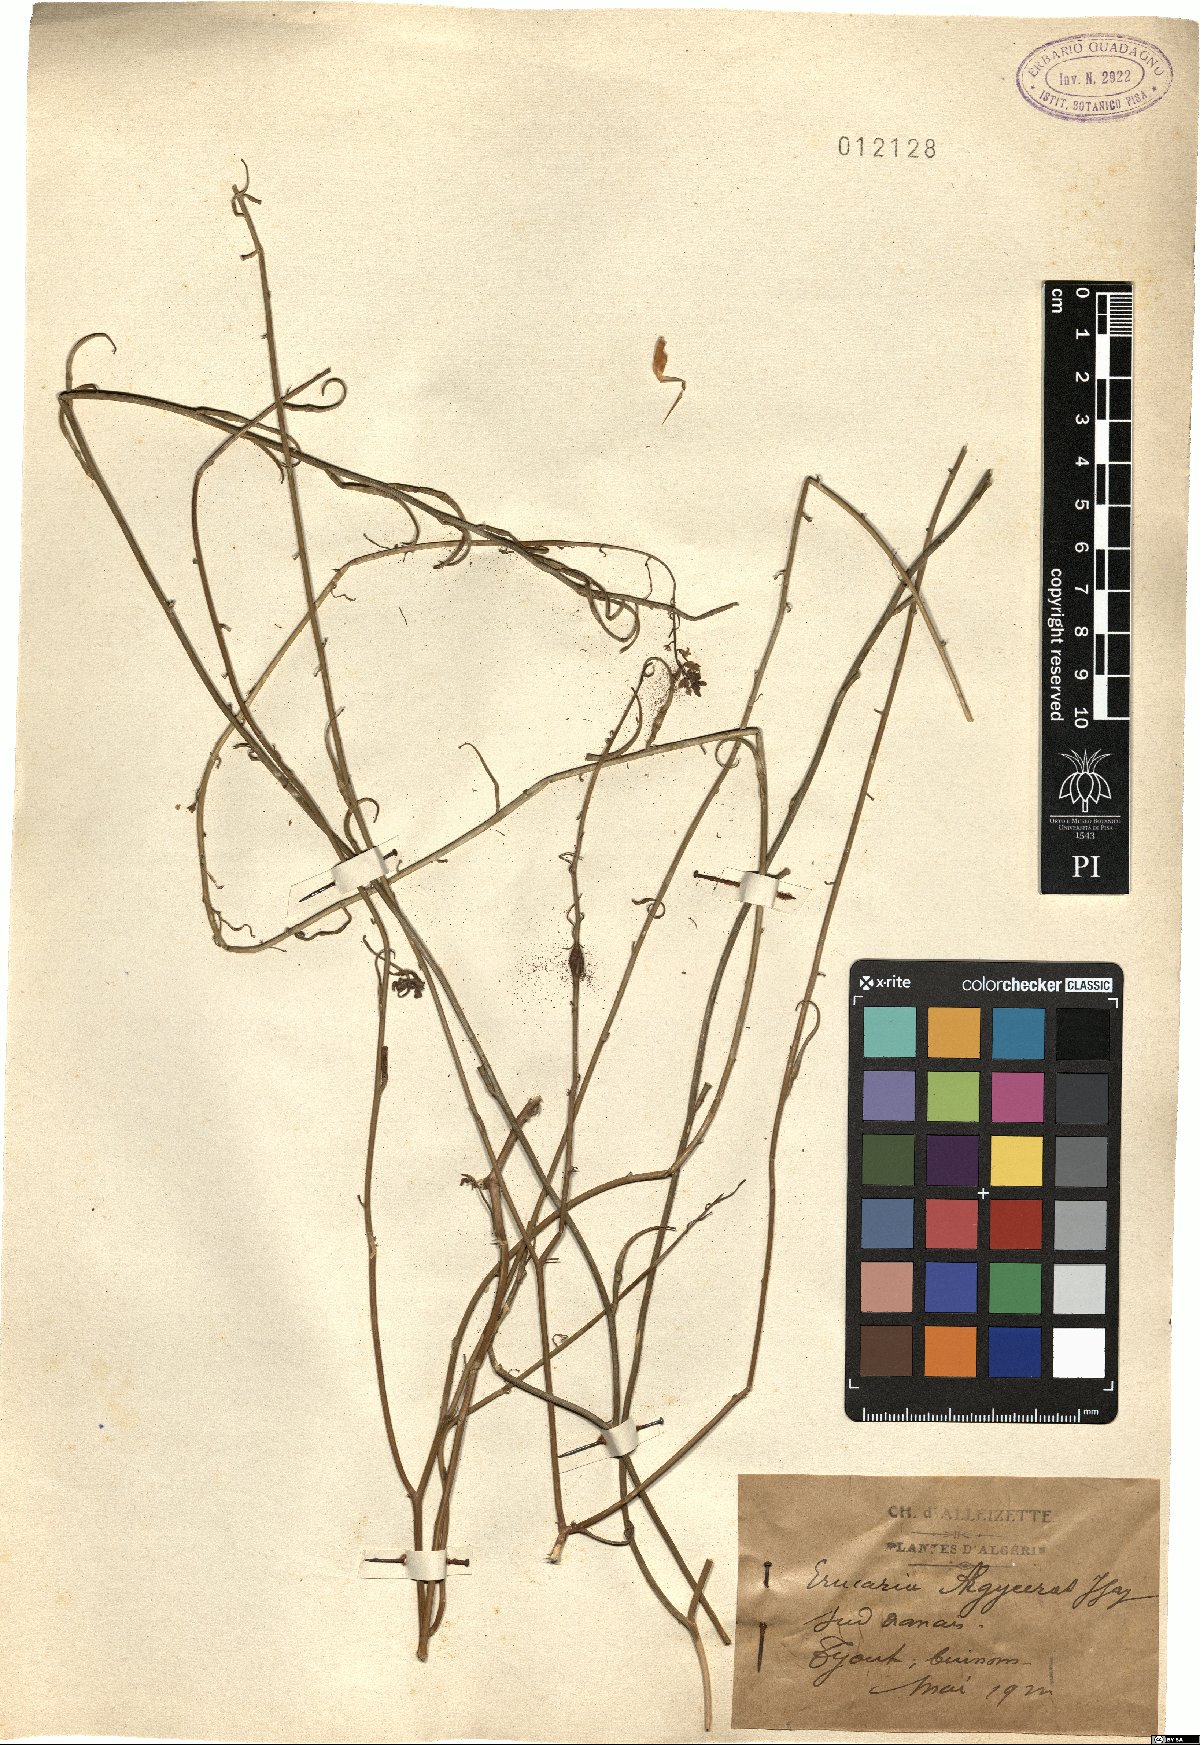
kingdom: Plantae
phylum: Tracheophyta
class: Magnoliopsida
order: Brassicales
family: Brassicaceae
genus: Erucaria
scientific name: Erucaria pinnata
